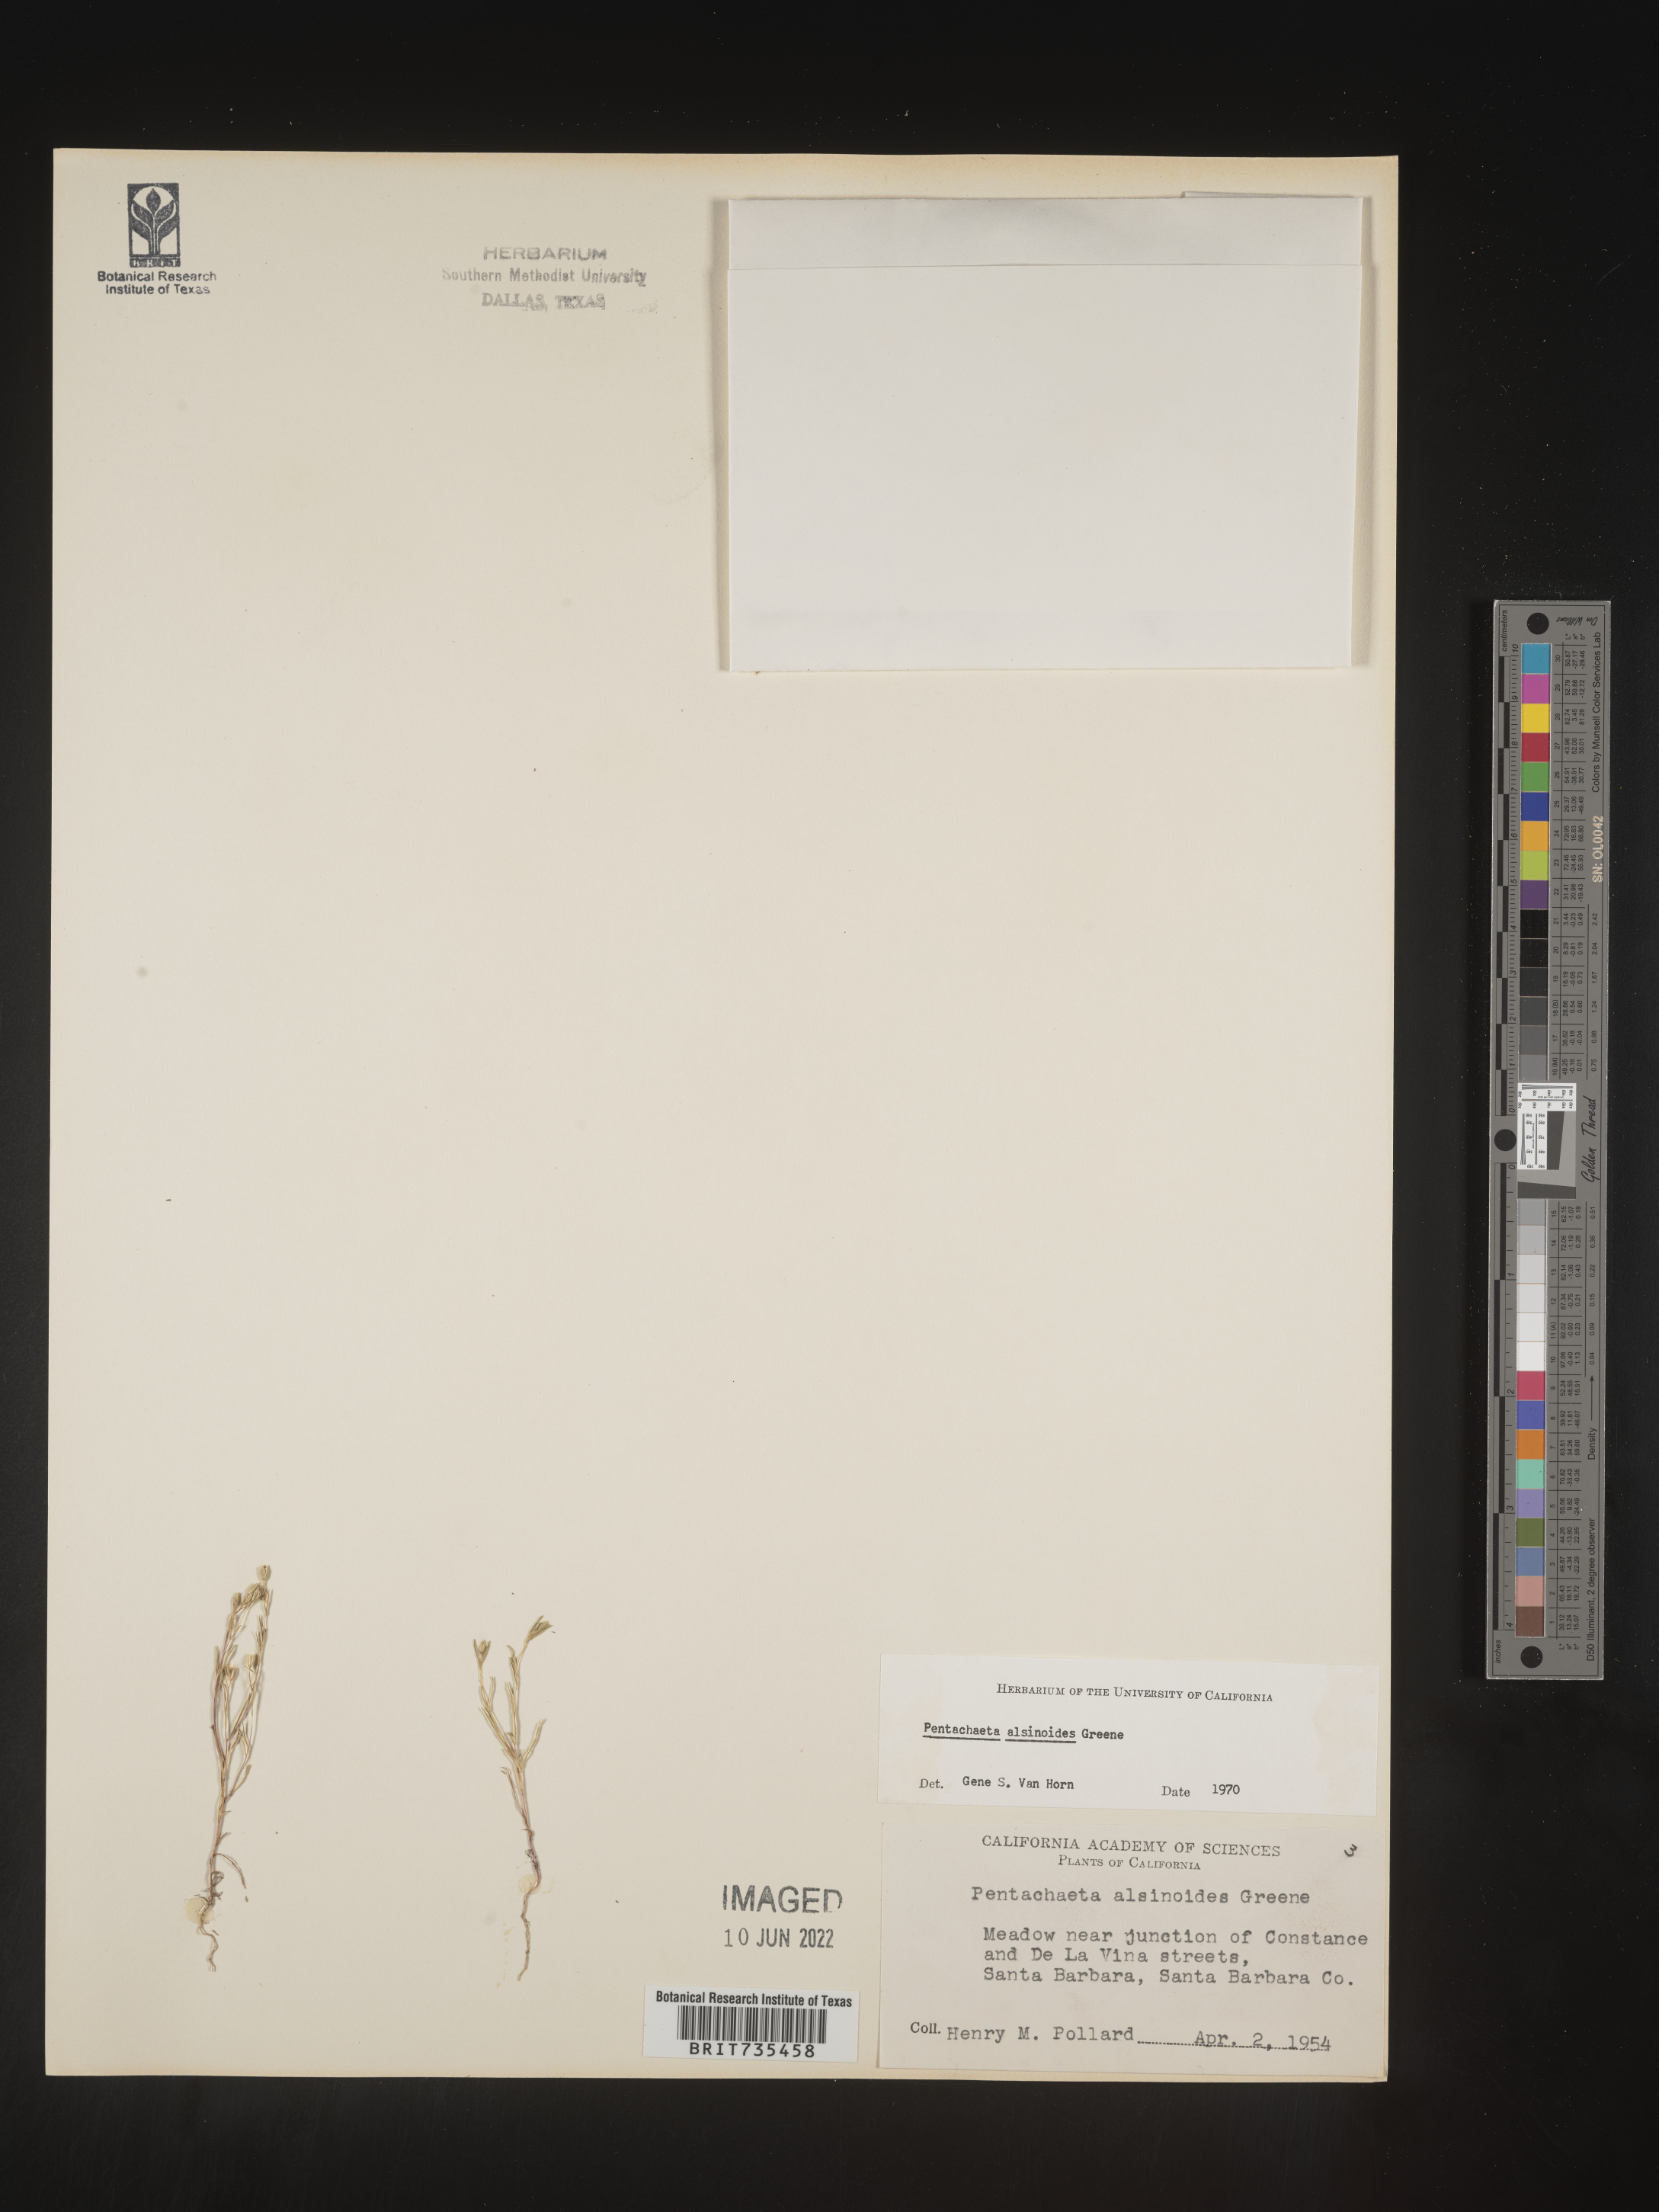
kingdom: Plantae
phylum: Tracheophyta
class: Magnoliopsida
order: Asterales
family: Asteraceae
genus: Pentachaeta
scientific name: Pentachaeta alsinoides
